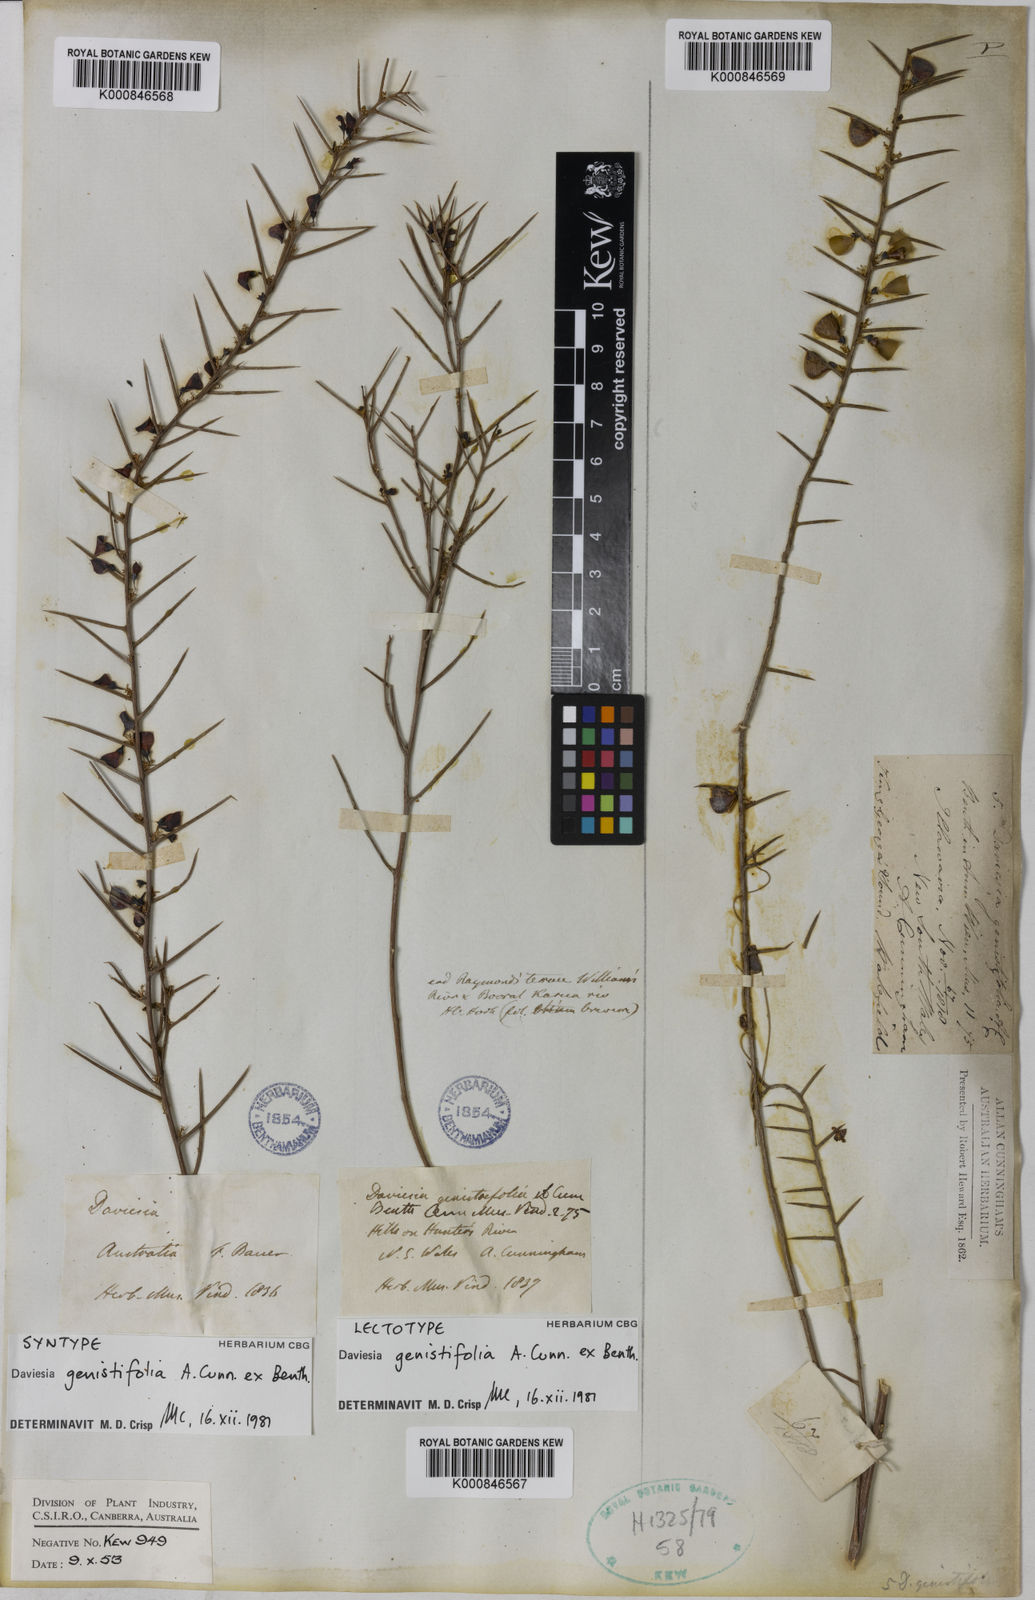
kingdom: Plantae
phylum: Tracheophyta
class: Magnoliopsida
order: Fabales
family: Fabaceae
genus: Daviesia
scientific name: Daviesia genistifolia
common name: Broom bitter-pea
